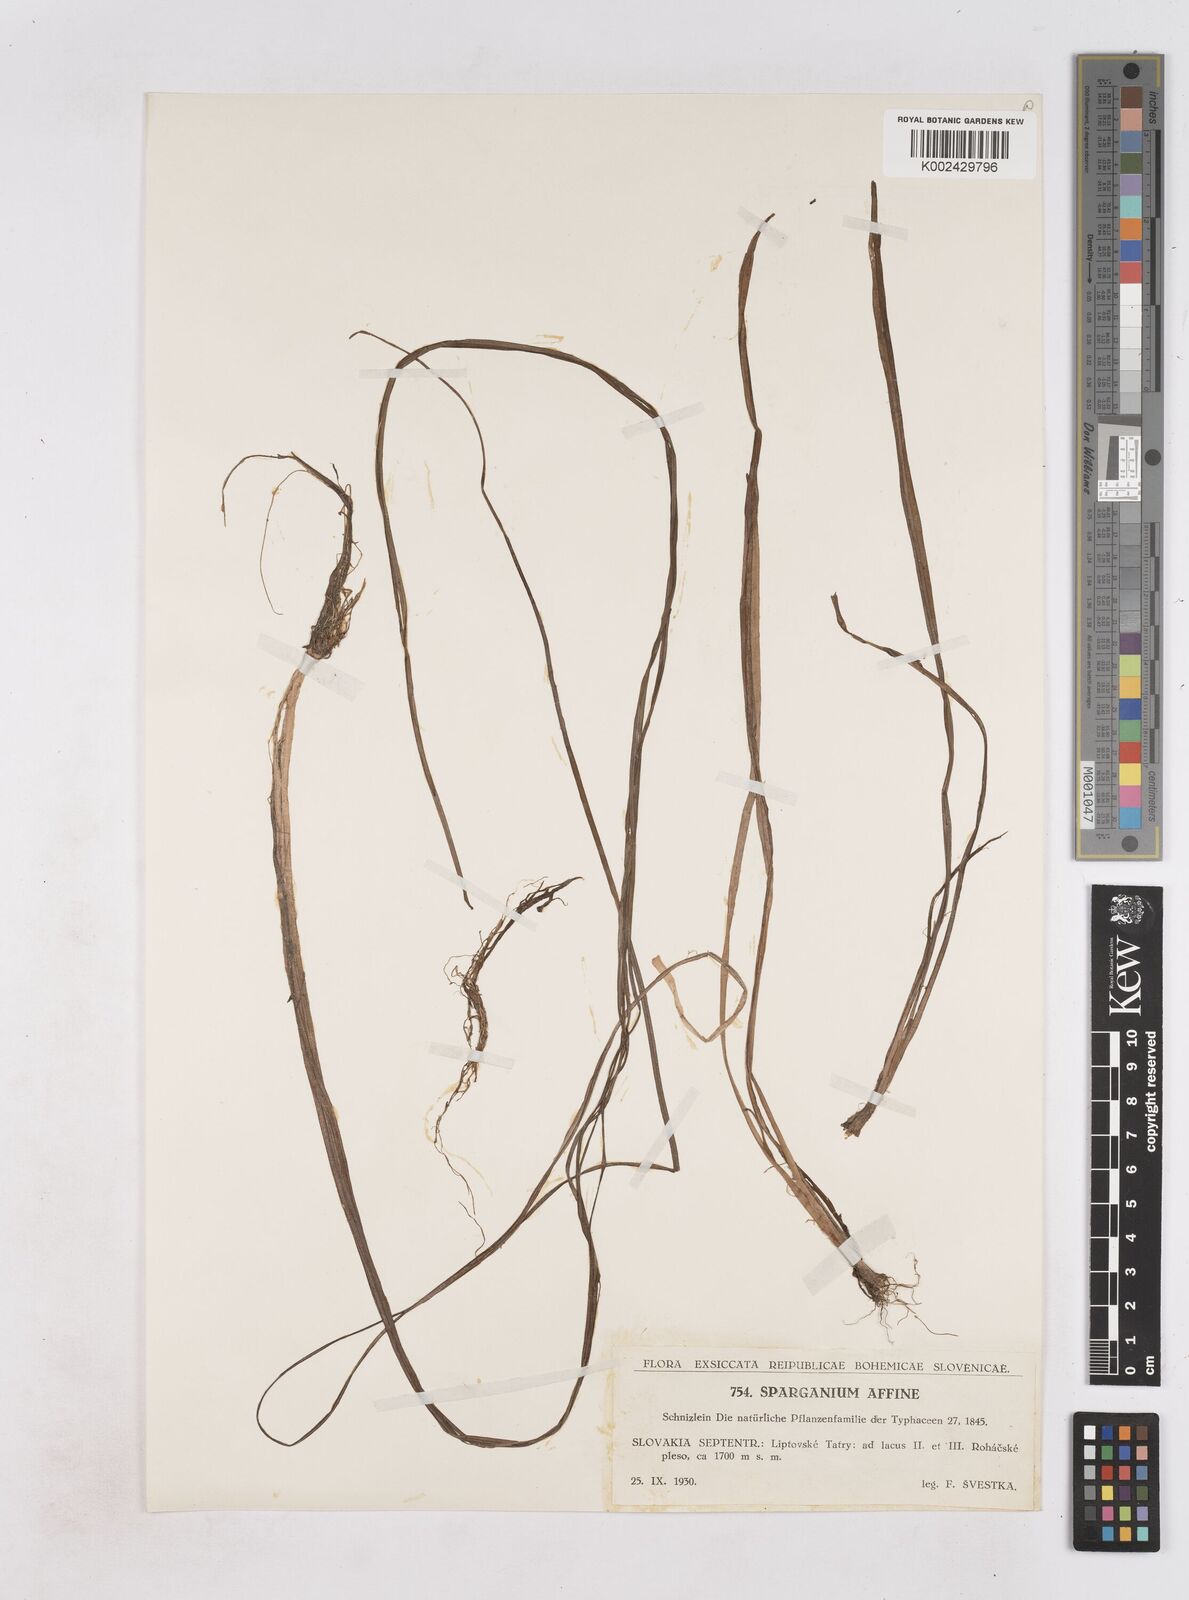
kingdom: Plantae
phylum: Tracheophyta
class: Liliopsida
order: Poales
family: Typhaceae
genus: Sparganium
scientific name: Sparganium angustifolium
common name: Floating bur-reed
